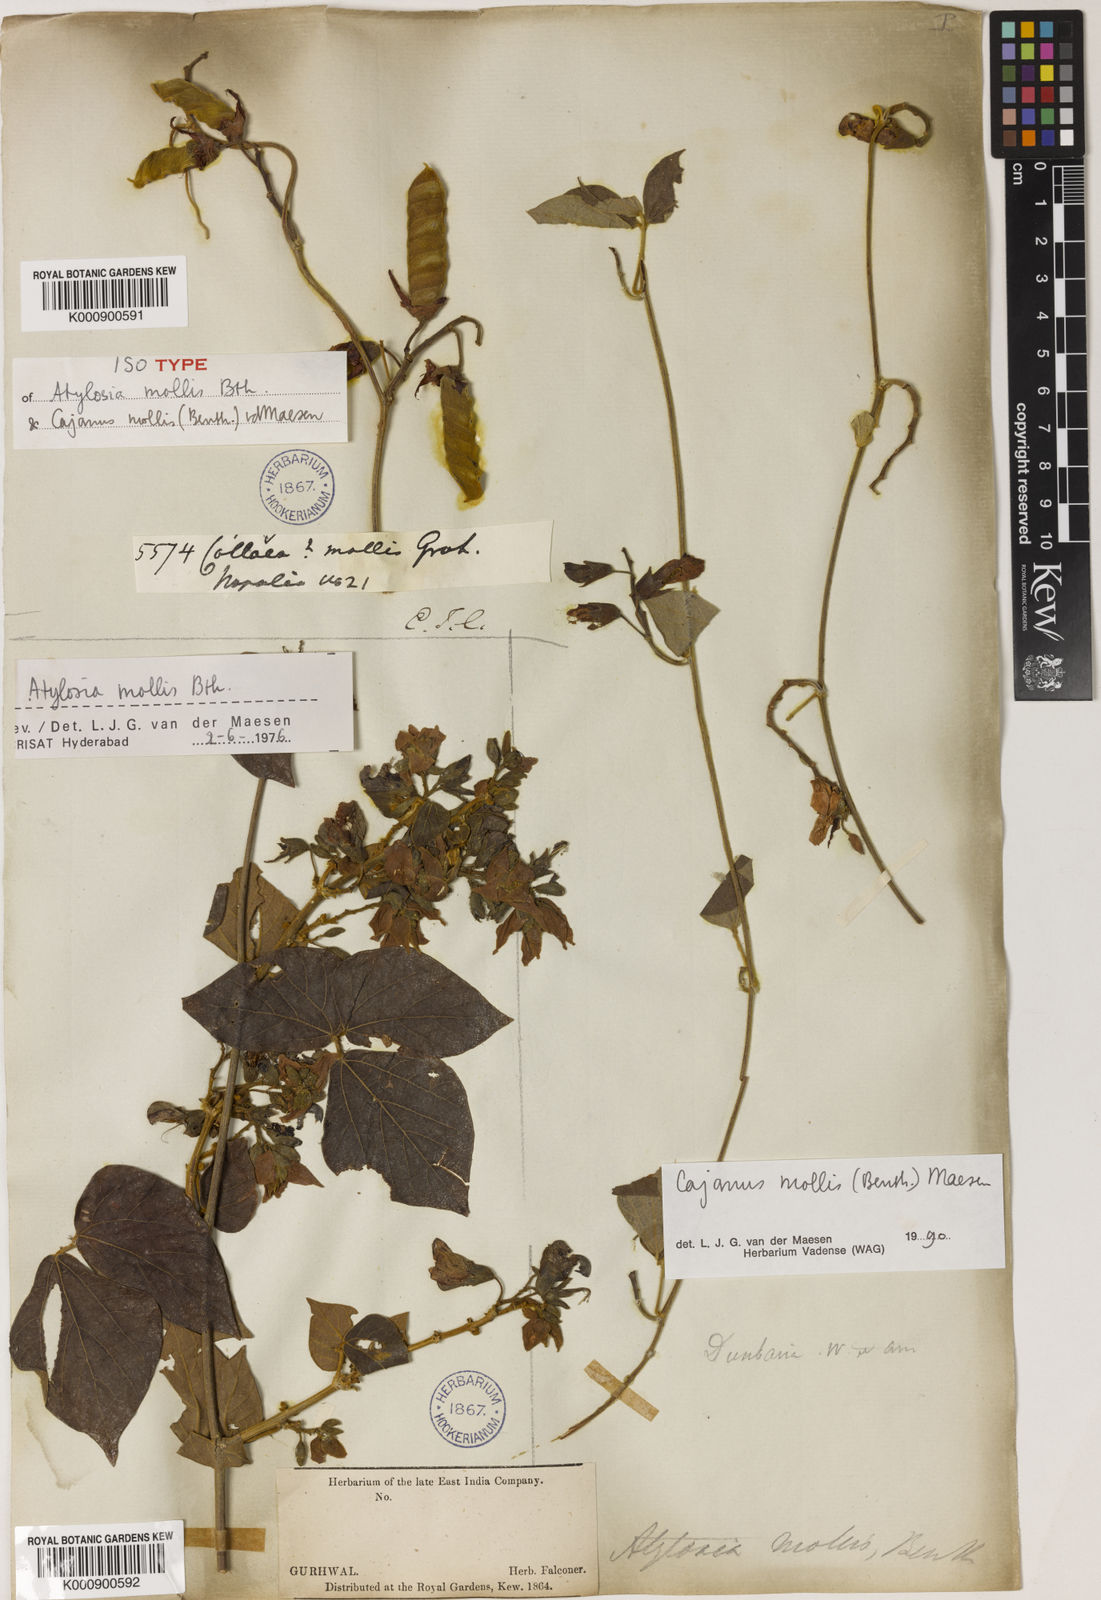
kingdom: Plantae
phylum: Tracheophyta
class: Magnoliopsida
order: Fabales
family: Fabaceae
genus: Cajanus
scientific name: Cajanus mollis
